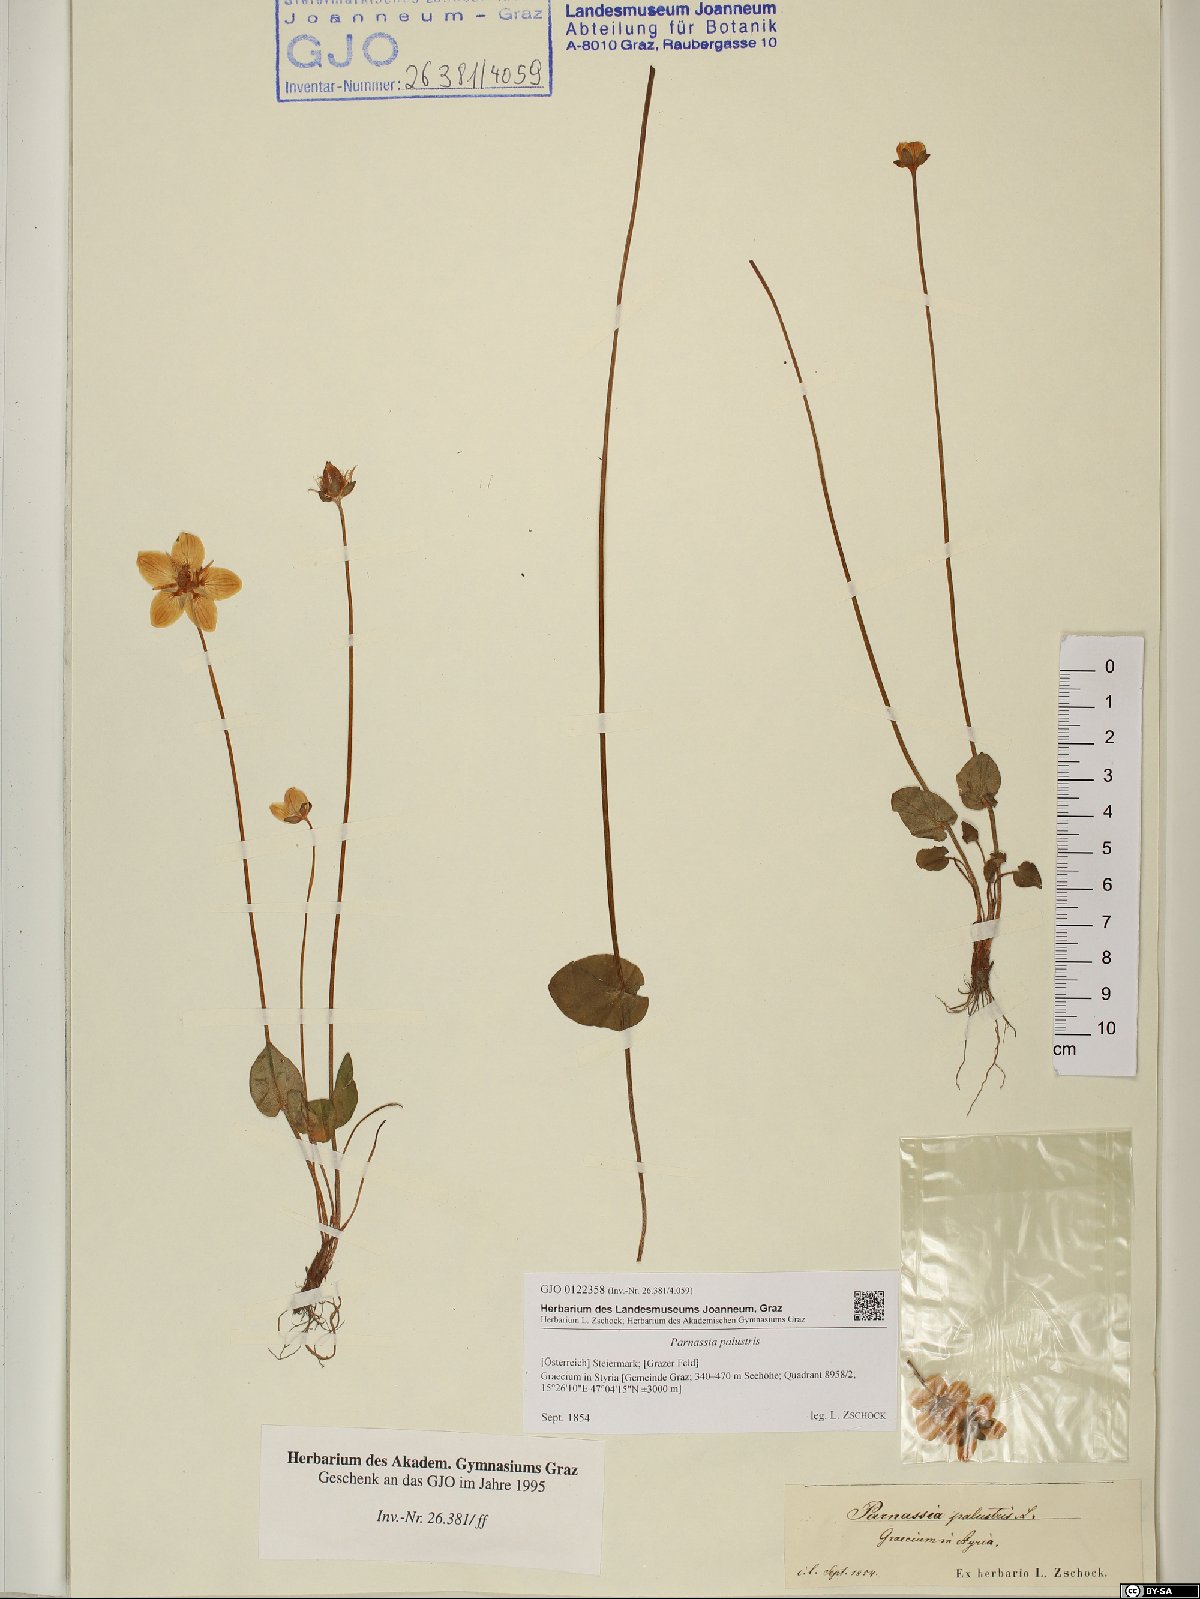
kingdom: Plantae
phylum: Tracheophyta
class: Magnoliopsida
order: Celastrales
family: Parnassiaceae
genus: Parnassia
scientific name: Parnassia palustris
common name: Grass-of-parnassus
